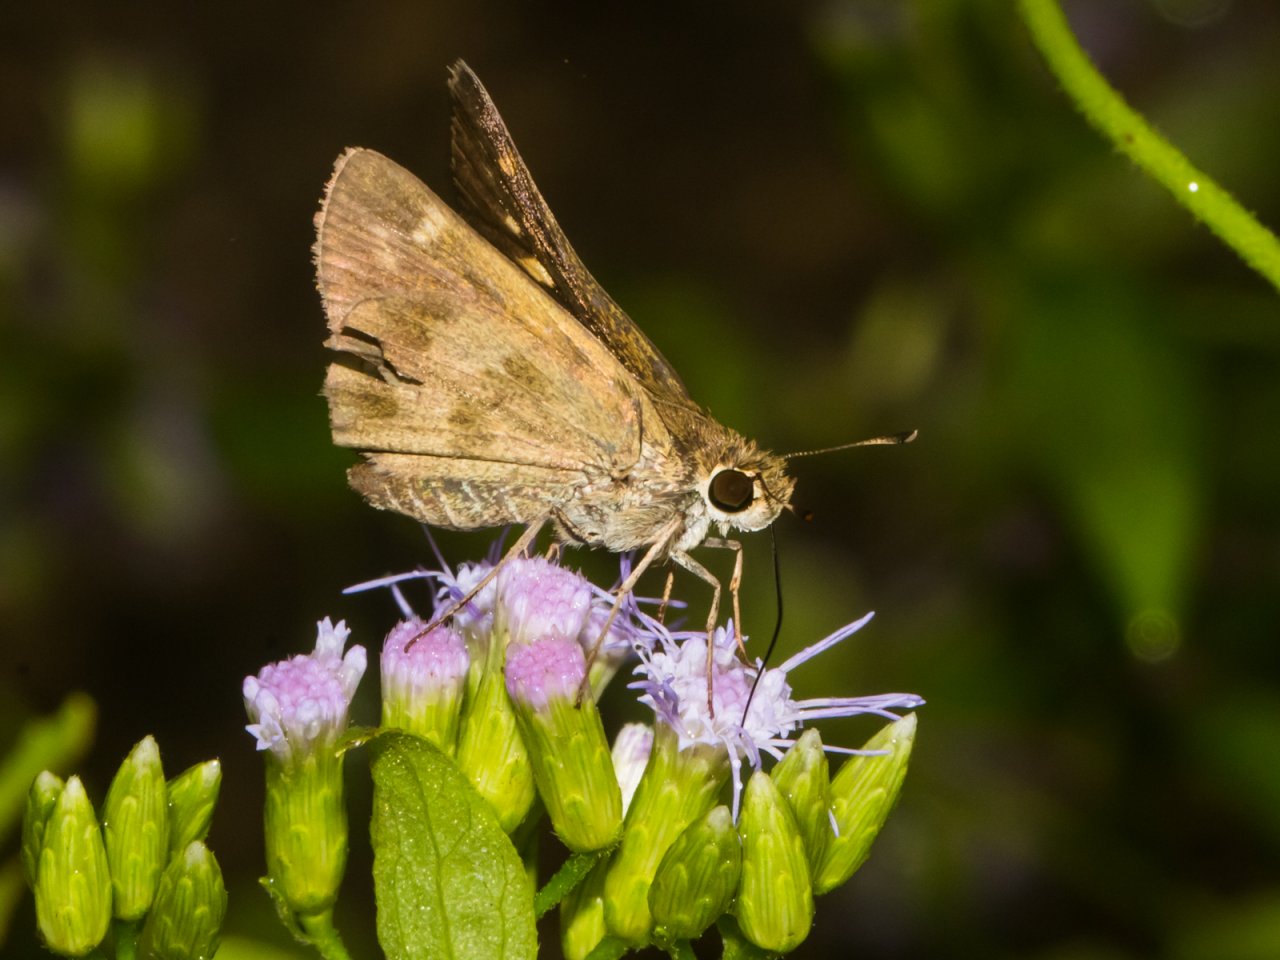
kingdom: Animalia
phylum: Arthropoda
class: Insecta
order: Lepidoptera
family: Hesperiidae
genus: Polites
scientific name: Polites vibex
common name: Whirlabout
